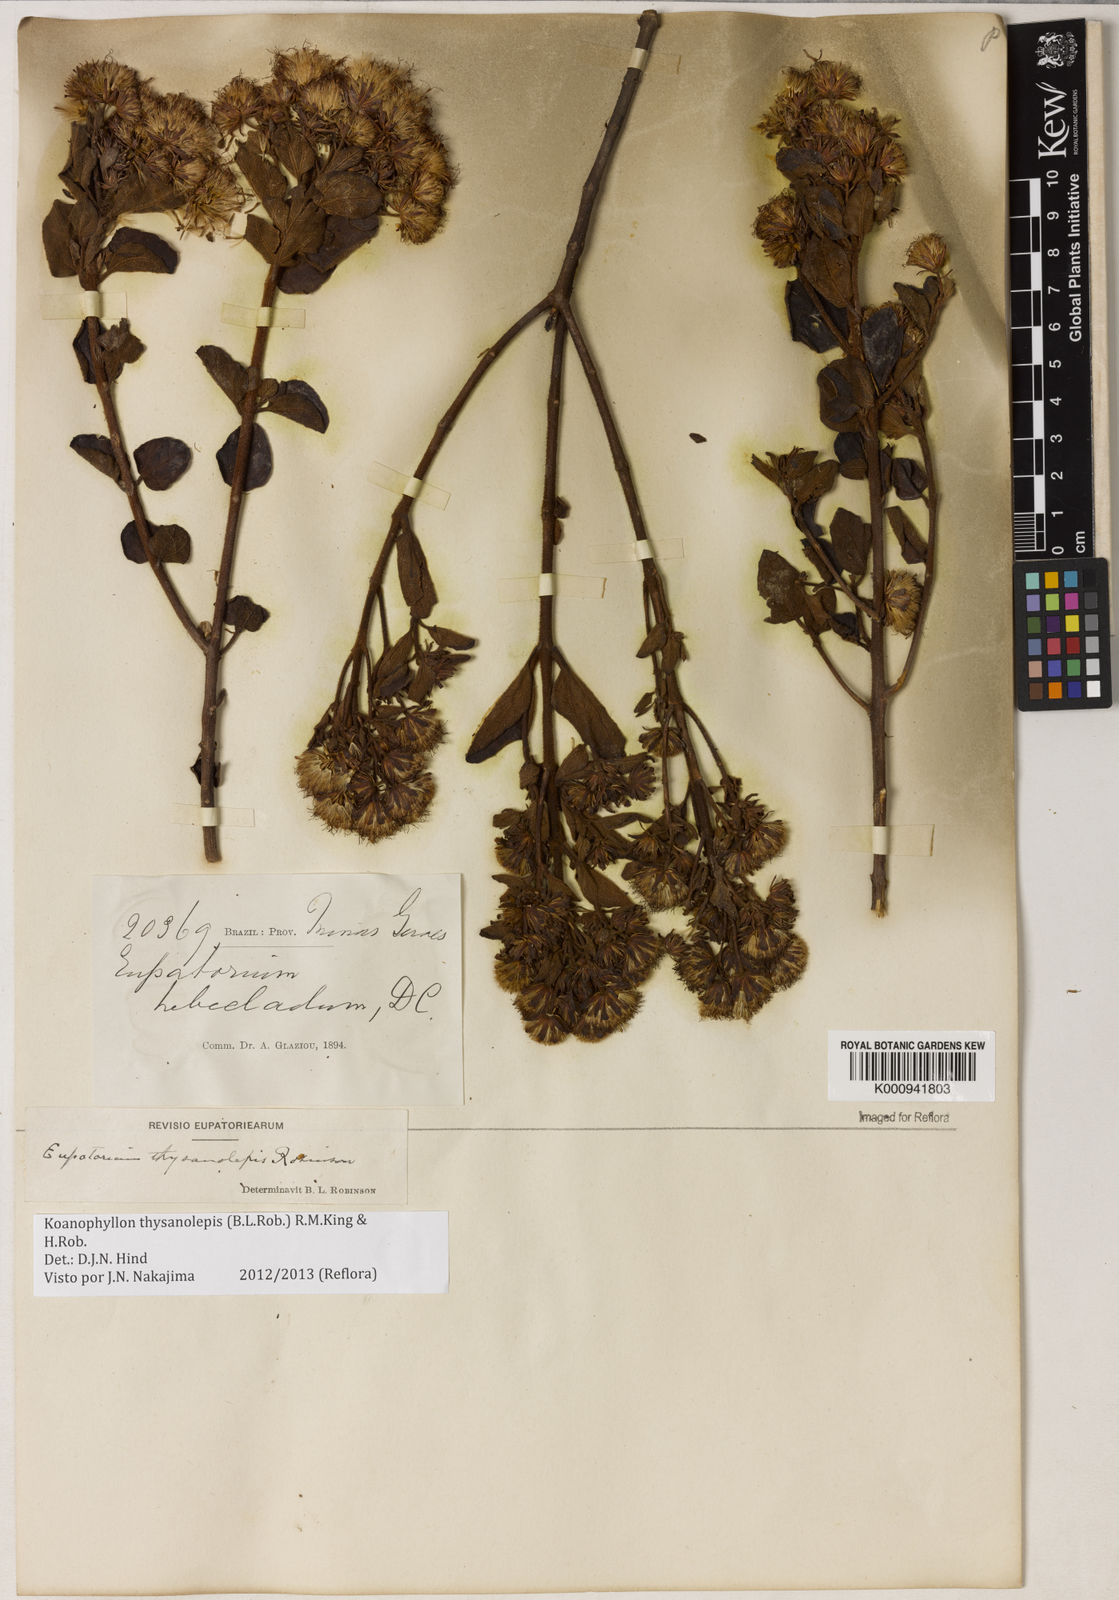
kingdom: Plantae
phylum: Tracheophyta
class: Magnoliopsida
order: Asterales
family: Asteraceae
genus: Koanophyllon
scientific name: Koanophyllon thysanolepis
